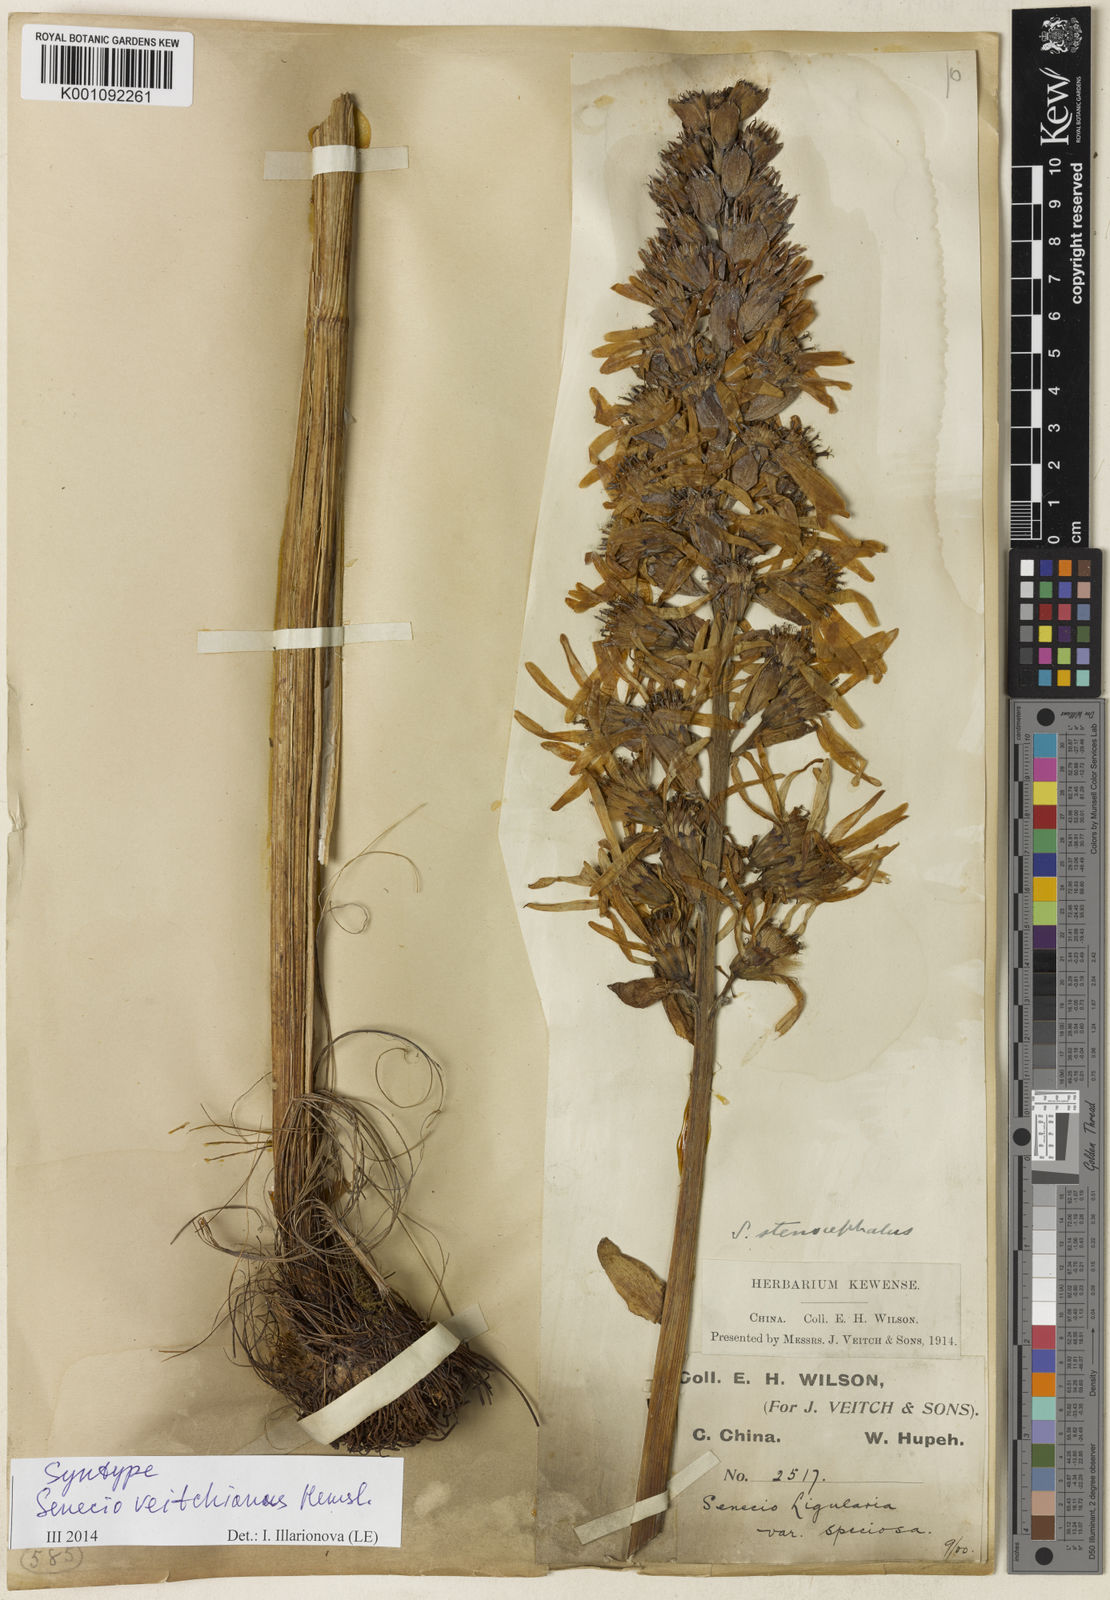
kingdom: Plantae
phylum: Tracheophyta
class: Magnoliopsida
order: Asterales
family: Asteraceae
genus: Ligularia
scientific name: Ligularia veitchiana
